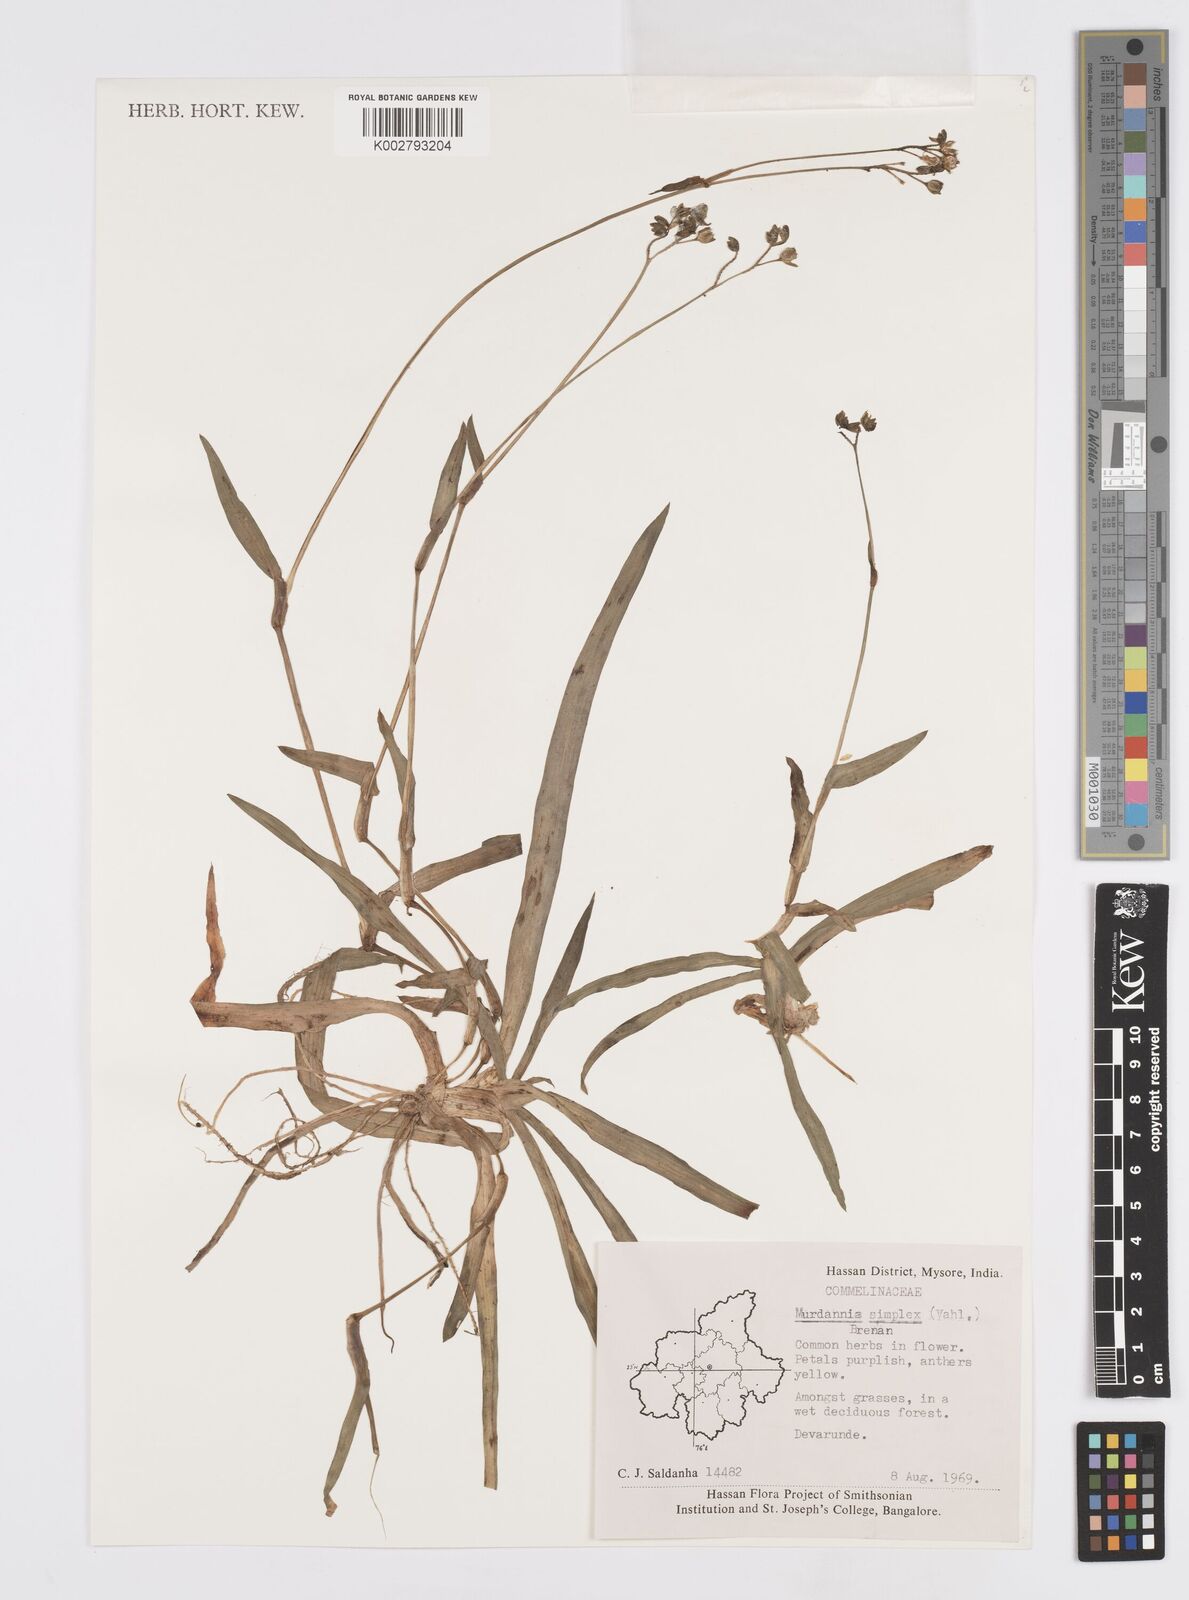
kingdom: Plantae
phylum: Tracheophyta
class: Liliopsida
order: Commelinales
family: Commelinaceae
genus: Murdannia
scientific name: Murdannia simplex
